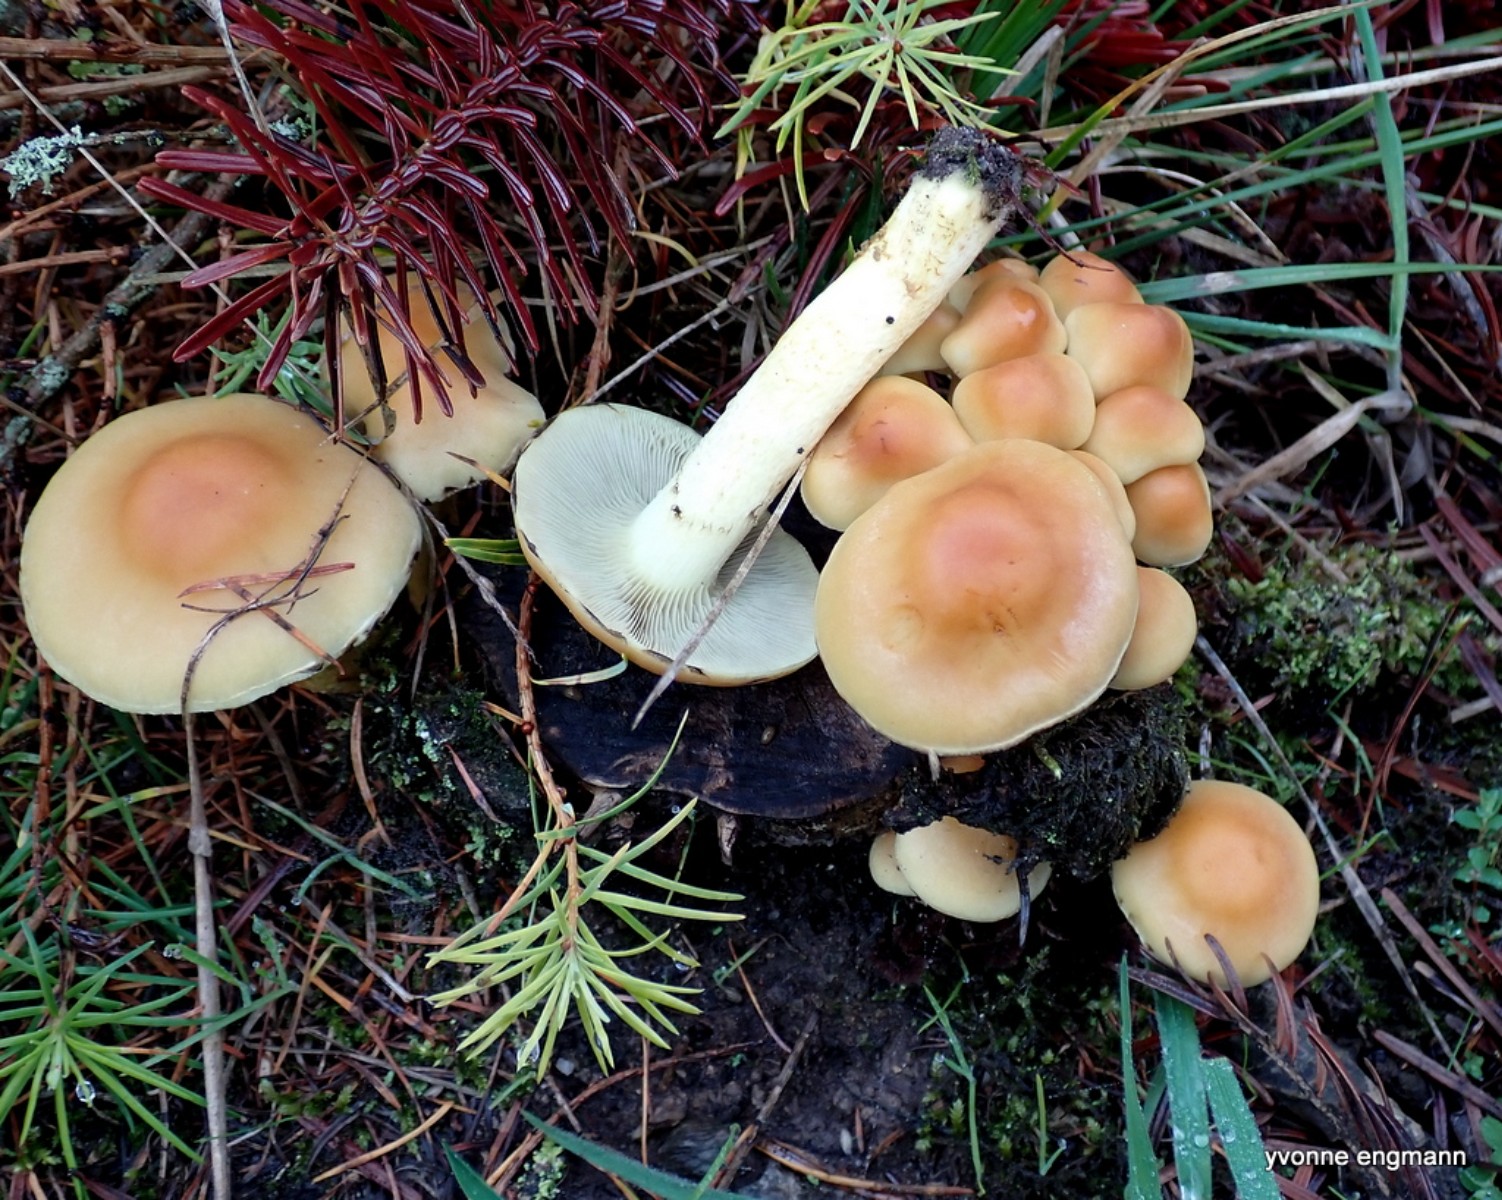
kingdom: Fungi
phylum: Basidiomycota
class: Agaricomycetes
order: Agaricales
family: Strophariaceae
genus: Hypholoma
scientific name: Hypholoma capnoides
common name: gran-svovlhat
